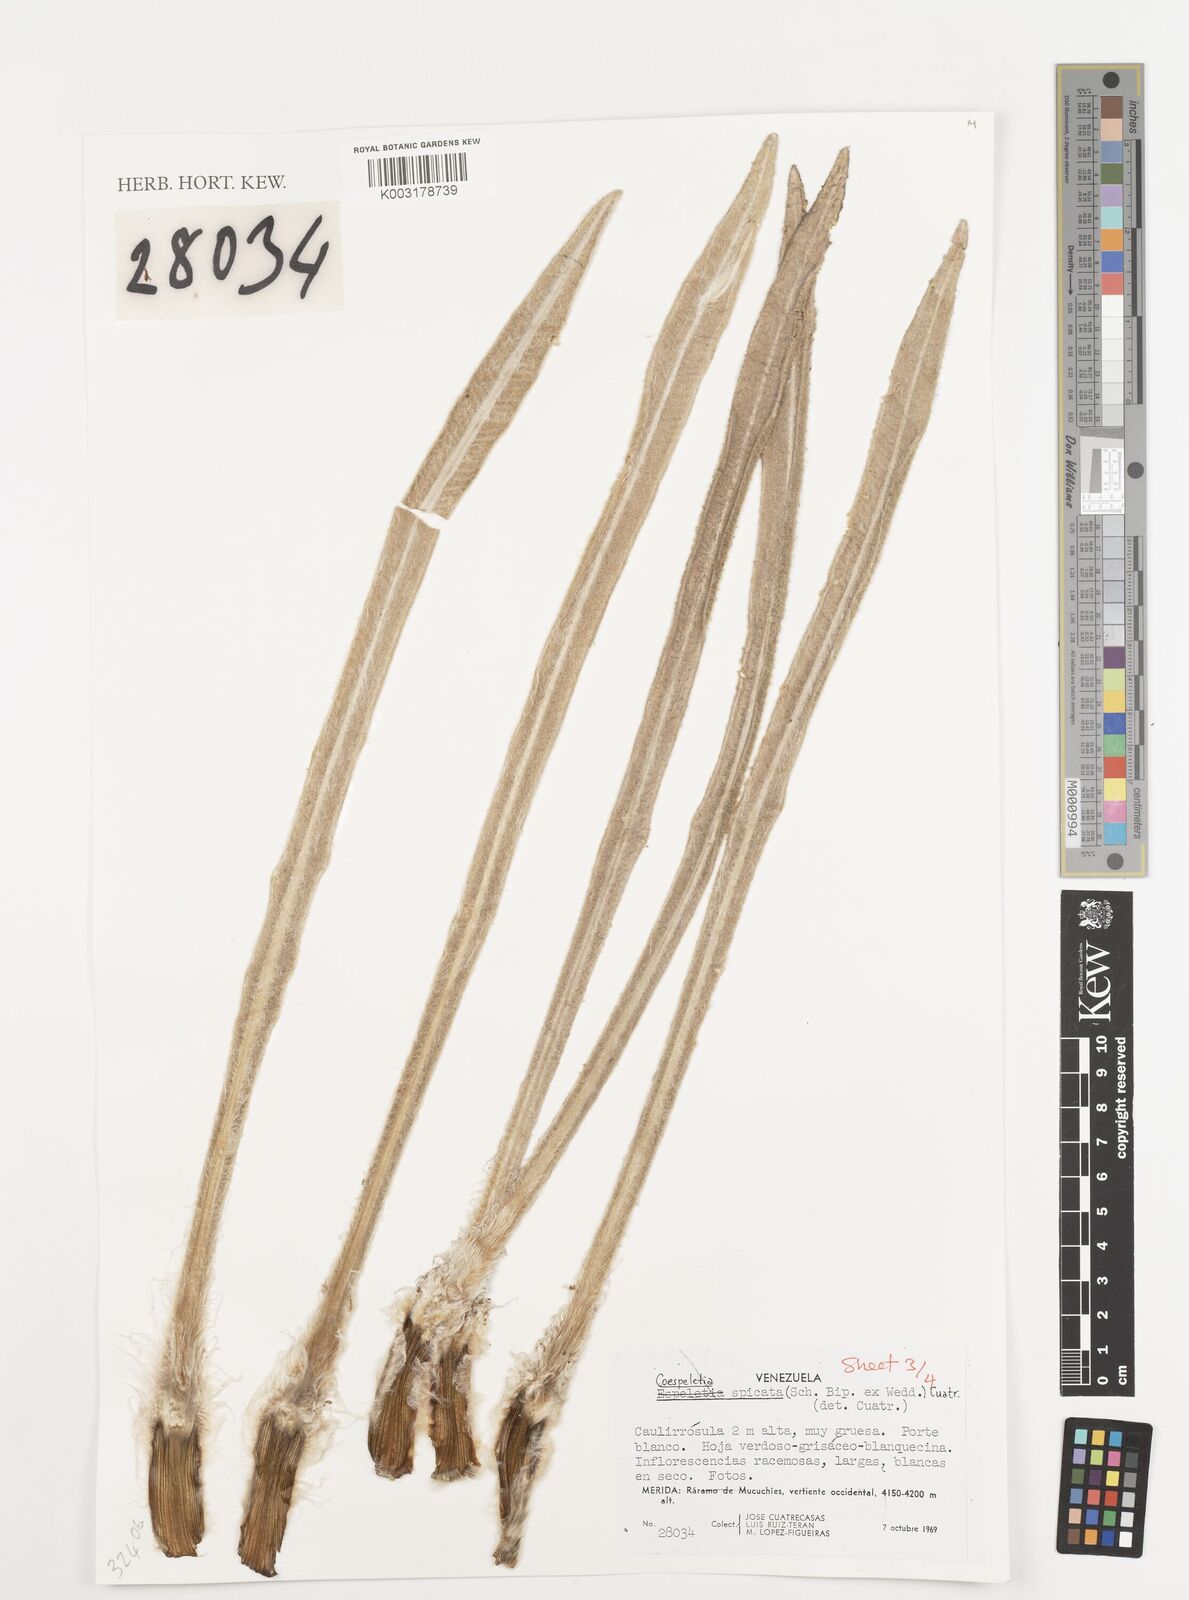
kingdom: Plantae
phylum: Tracheophyta
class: Magnoliopsida
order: Asterales
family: Asteraceae
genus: Espeletia
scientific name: Espeletia spicata
